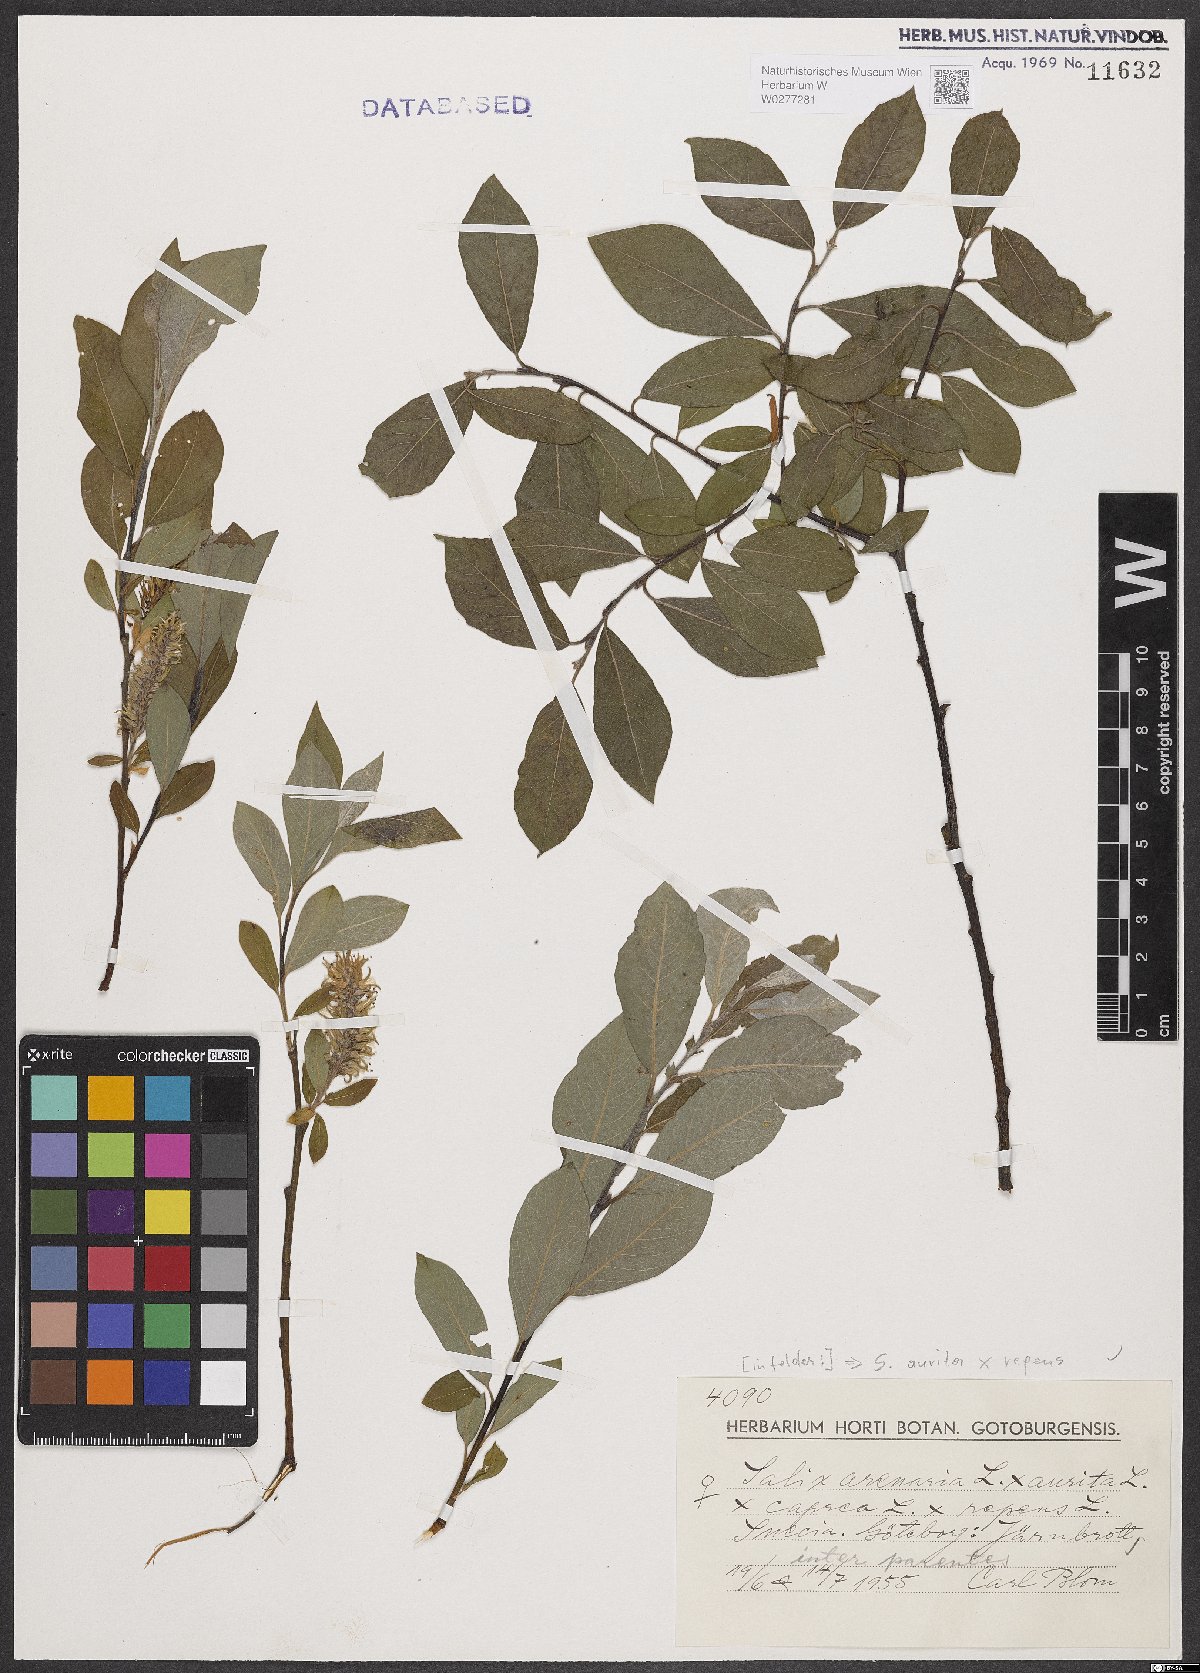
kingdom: Plantae
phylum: Tracheophyta
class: Magnoliopsida
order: Malpighiales
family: Salicaceae
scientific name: Salicaceae
